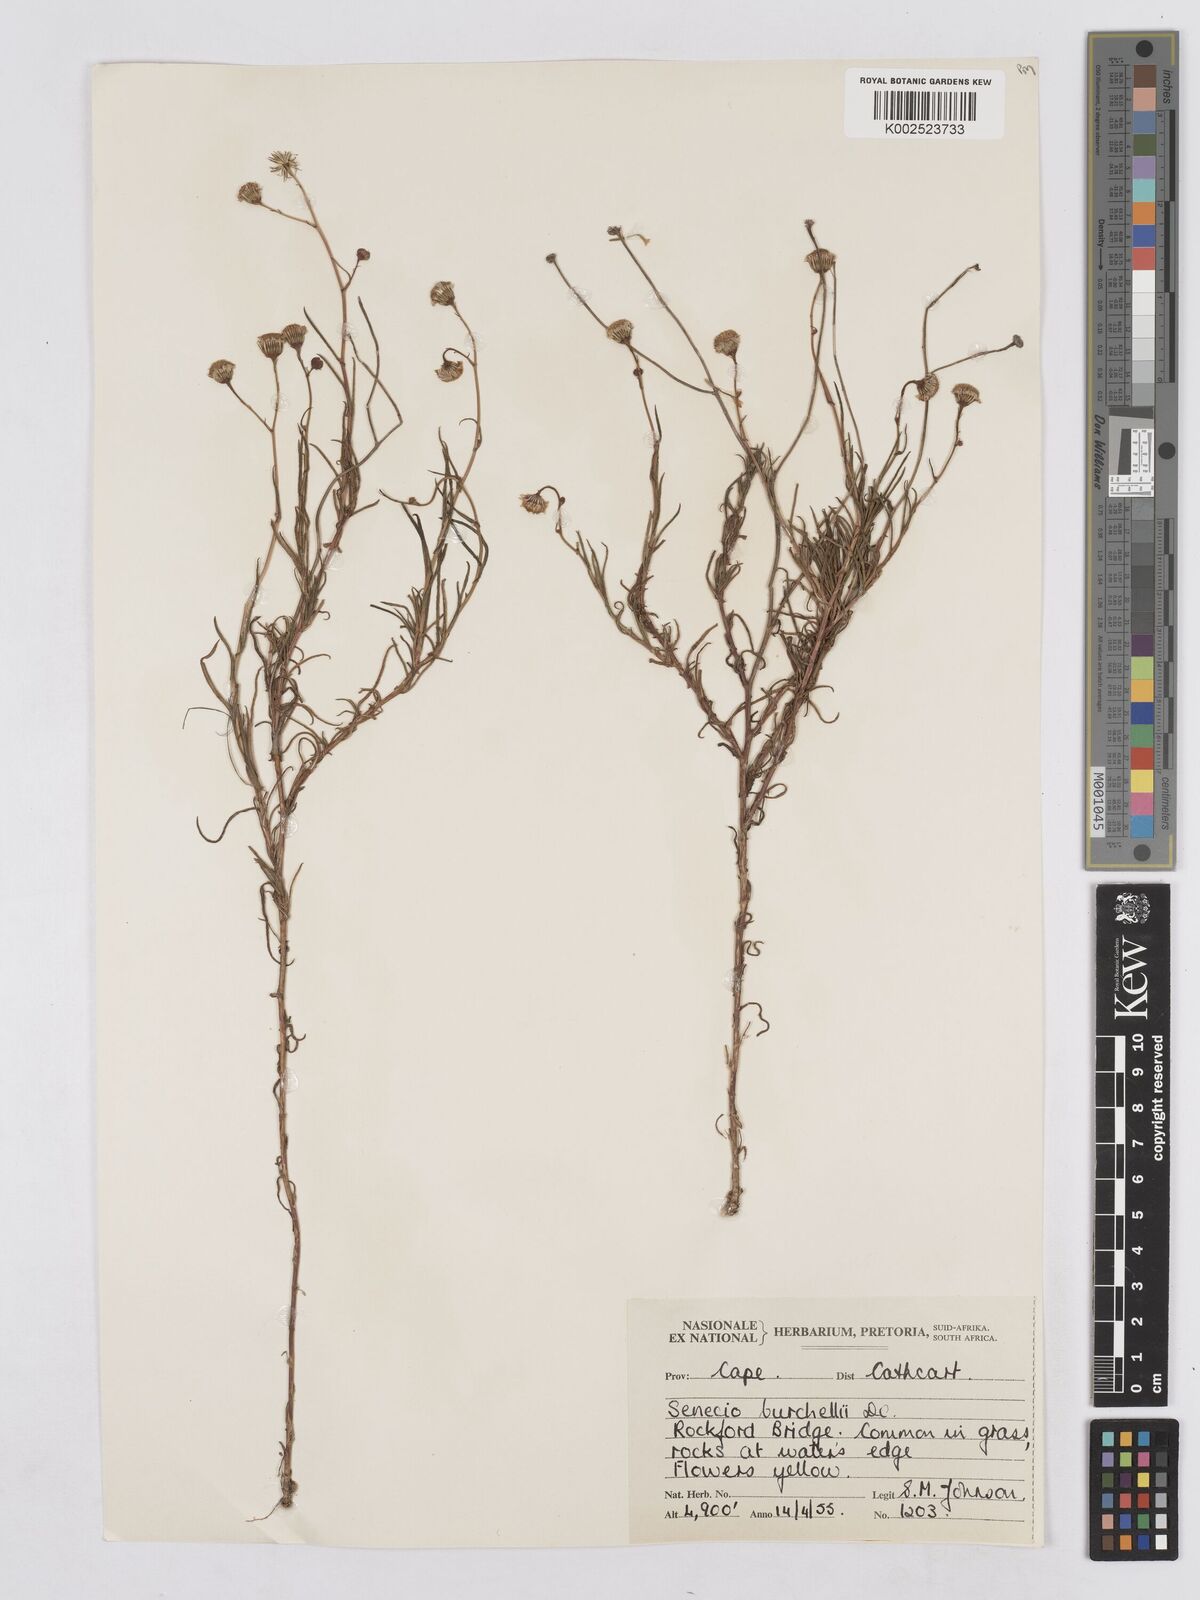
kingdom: Plantae
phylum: Tracheophyta
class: Magnoliopsida
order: Asterales
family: Asteraceae
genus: Senecio
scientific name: Senecio burchellii
